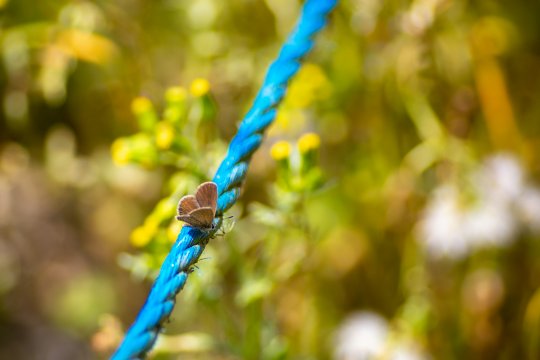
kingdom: Animalia
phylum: Arthropoda
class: Insecta
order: Lepidoptera
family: Lycaenidae
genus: Hemiargus
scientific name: Hemiargus ceraunus
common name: Ceraunus Blue
